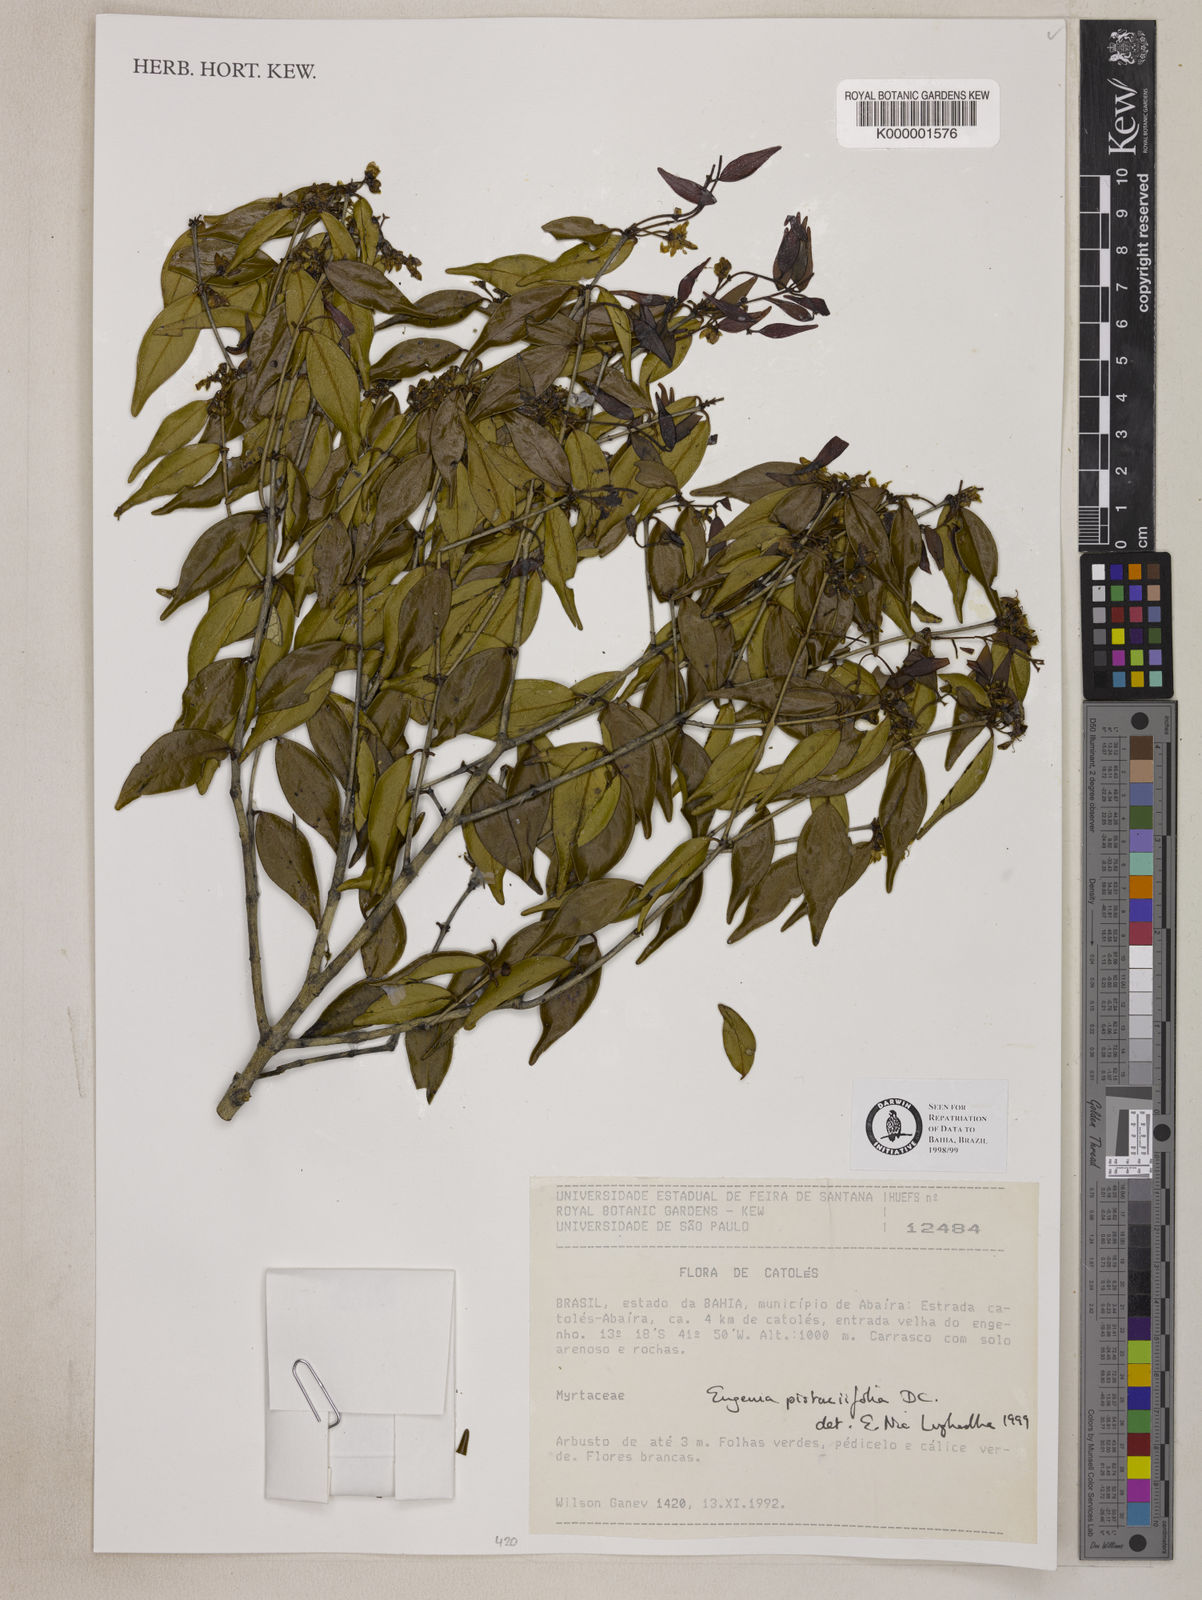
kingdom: Plantae
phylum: Tracheophyta
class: Magnoliopsida
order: Myrtales
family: Myrtaceae
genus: Eugenia
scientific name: Eugenia pistaciifolia
